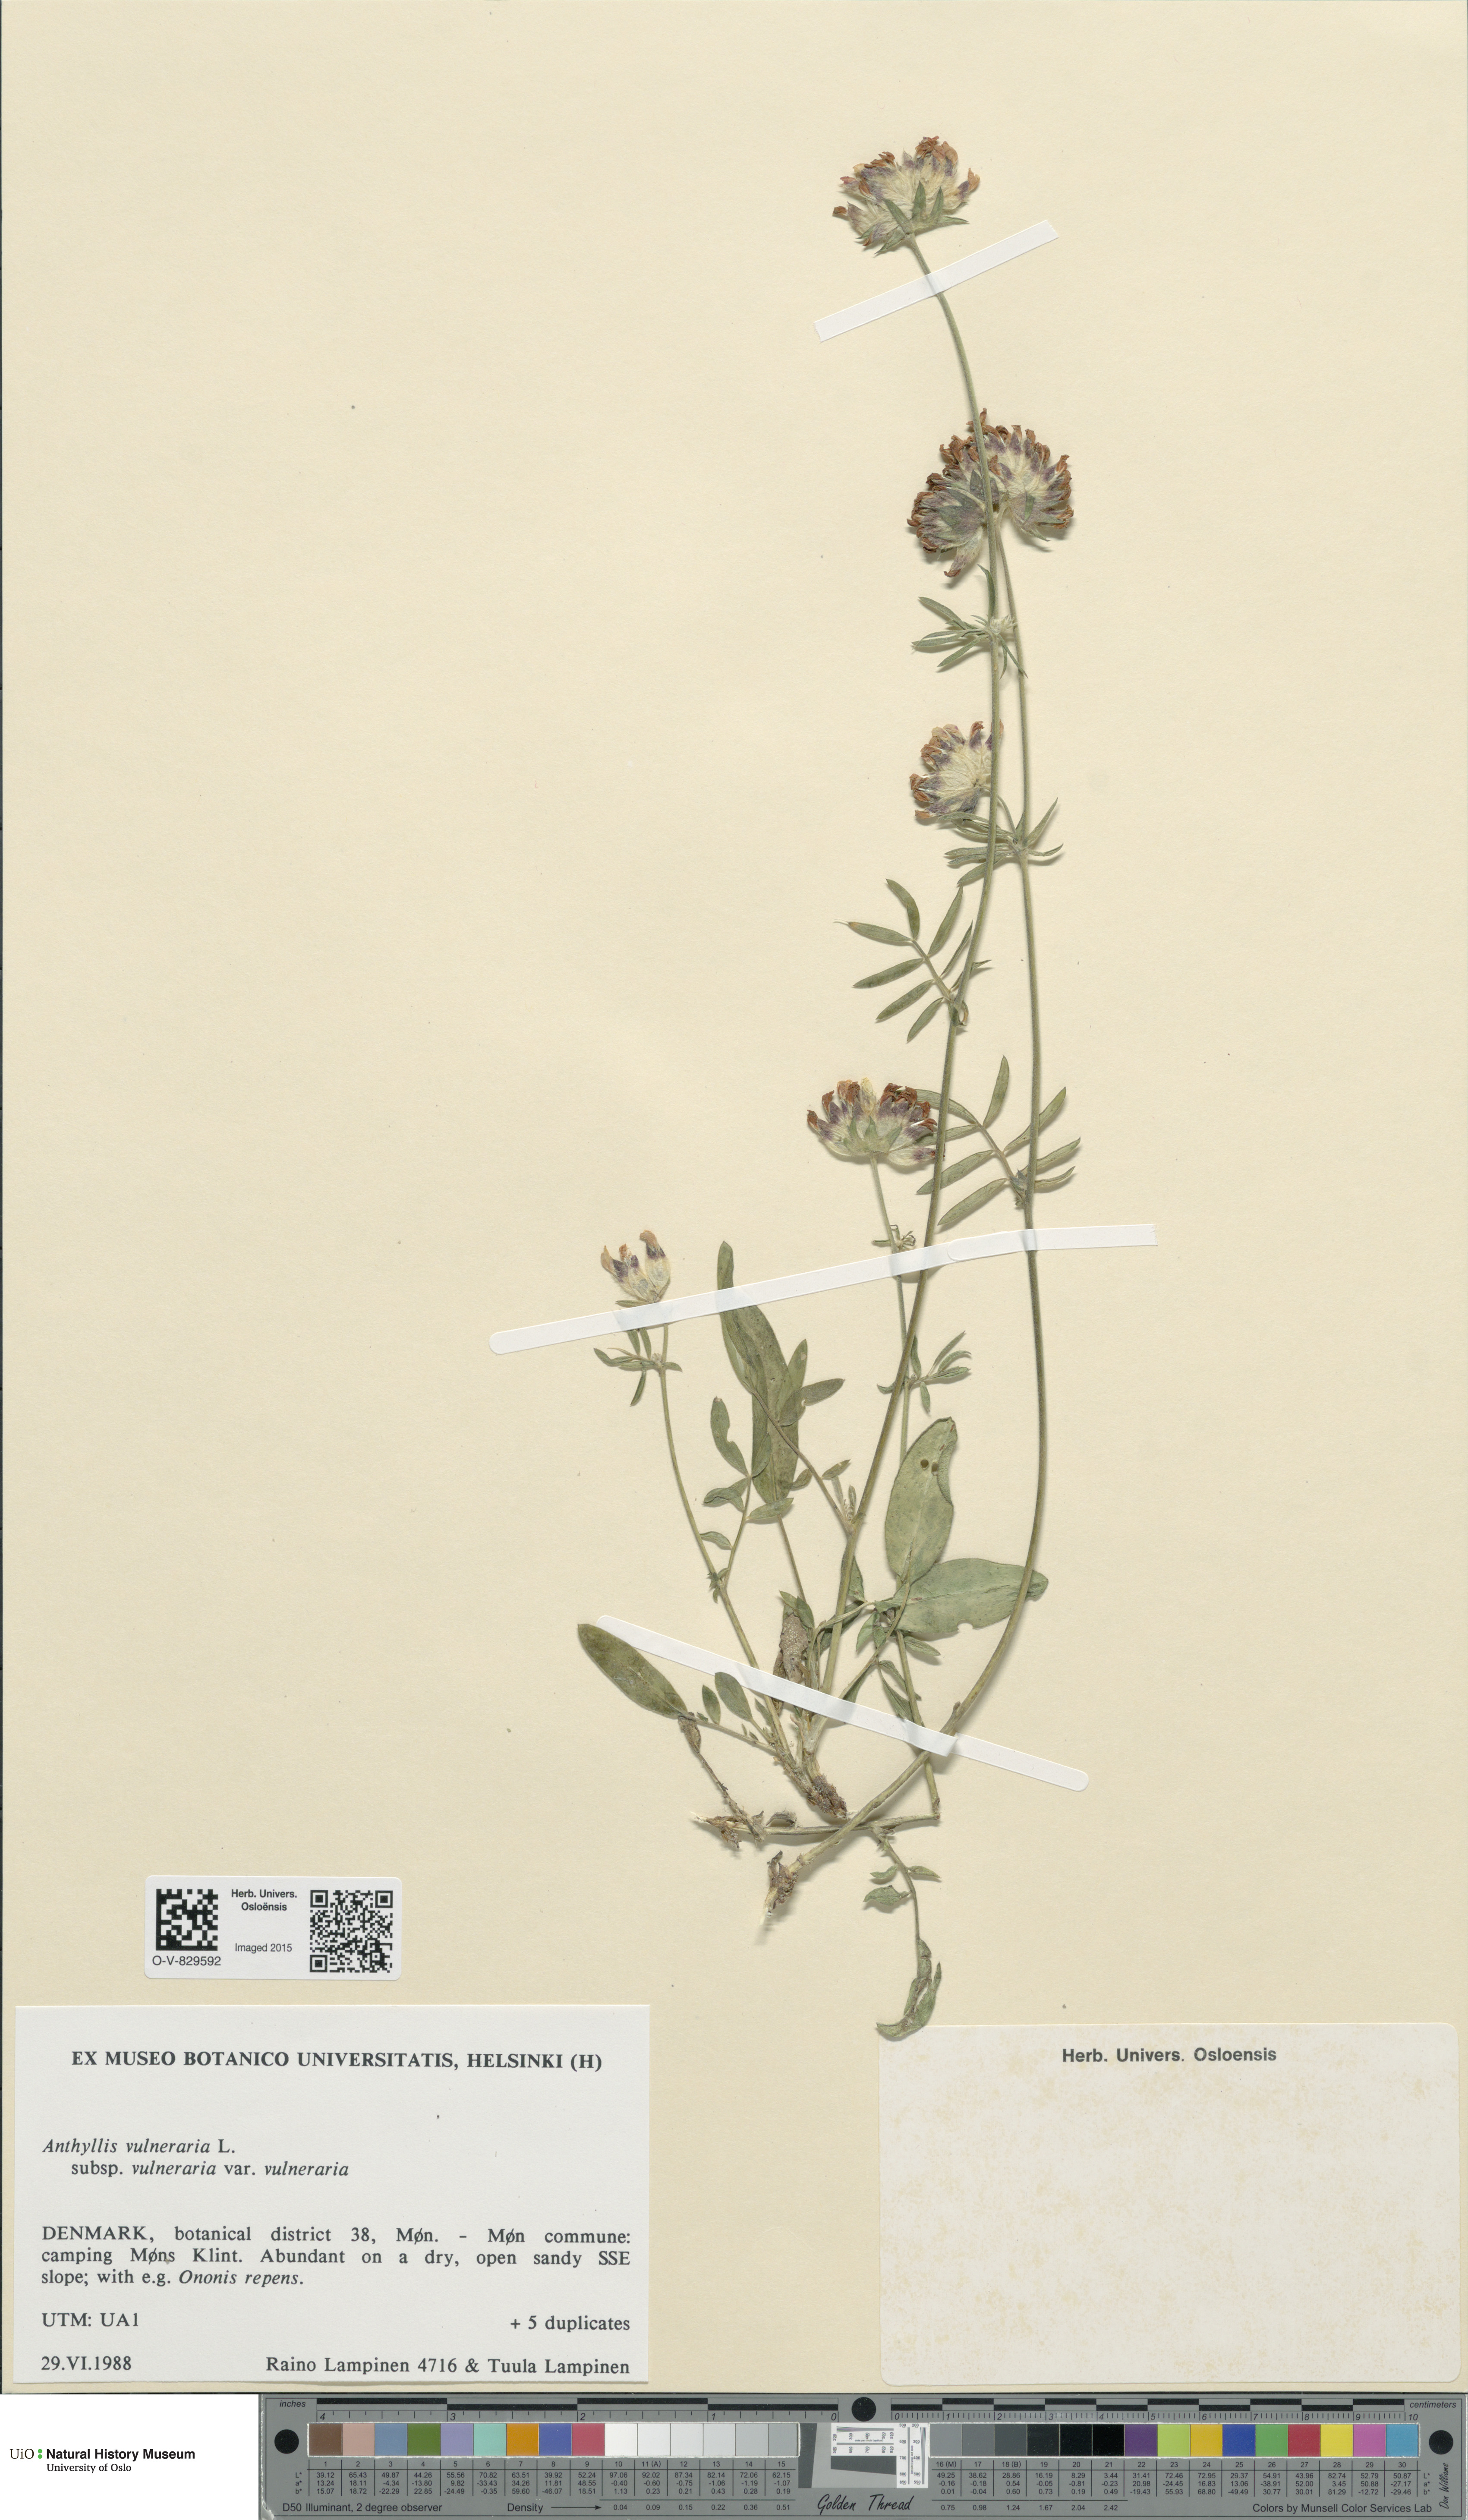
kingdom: Plantae
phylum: Tracheophyta
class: Magnoliopsida
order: Fabales
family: Fabaceae
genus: Anthyllis
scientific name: Anthyllis vulneraria
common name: Kidney vetch
